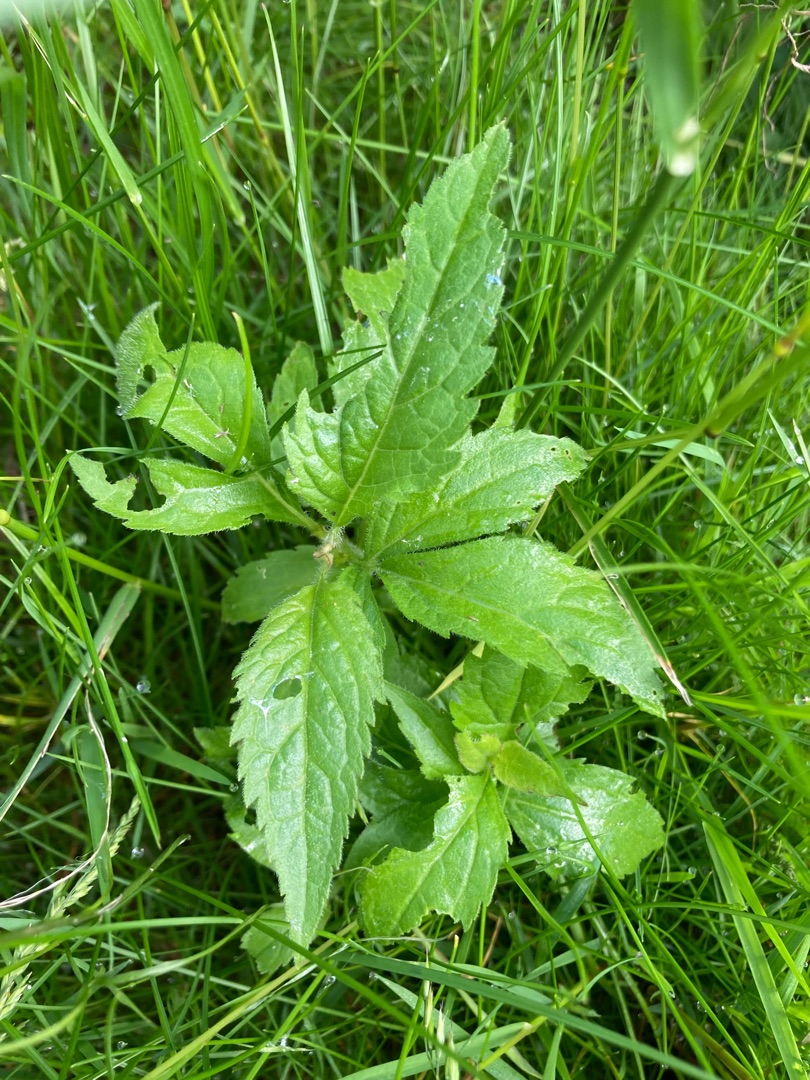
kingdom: Plantae
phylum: Tracheophyta
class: Magnoliopsida
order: Asterales
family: Asteraceae
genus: Eupatorium
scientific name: Eupatorium cannabinum
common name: Hjortetrøst
